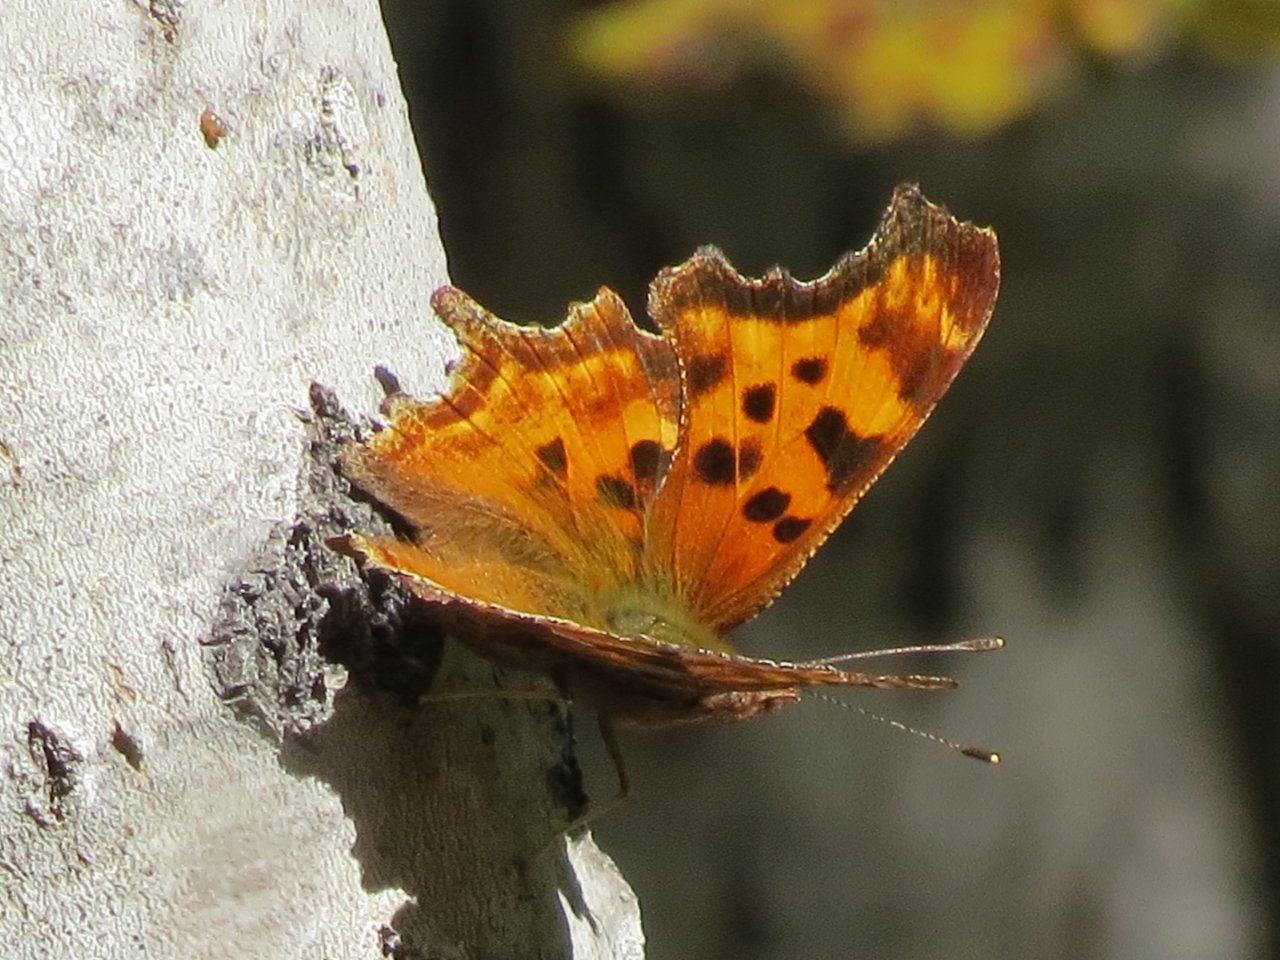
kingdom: Animalia
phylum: Arthropoda
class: Insecta
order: Lepidoptera
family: Nymphalidae
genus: Polygonia
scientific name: Polygonia satyrus
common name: Satyr Comma
